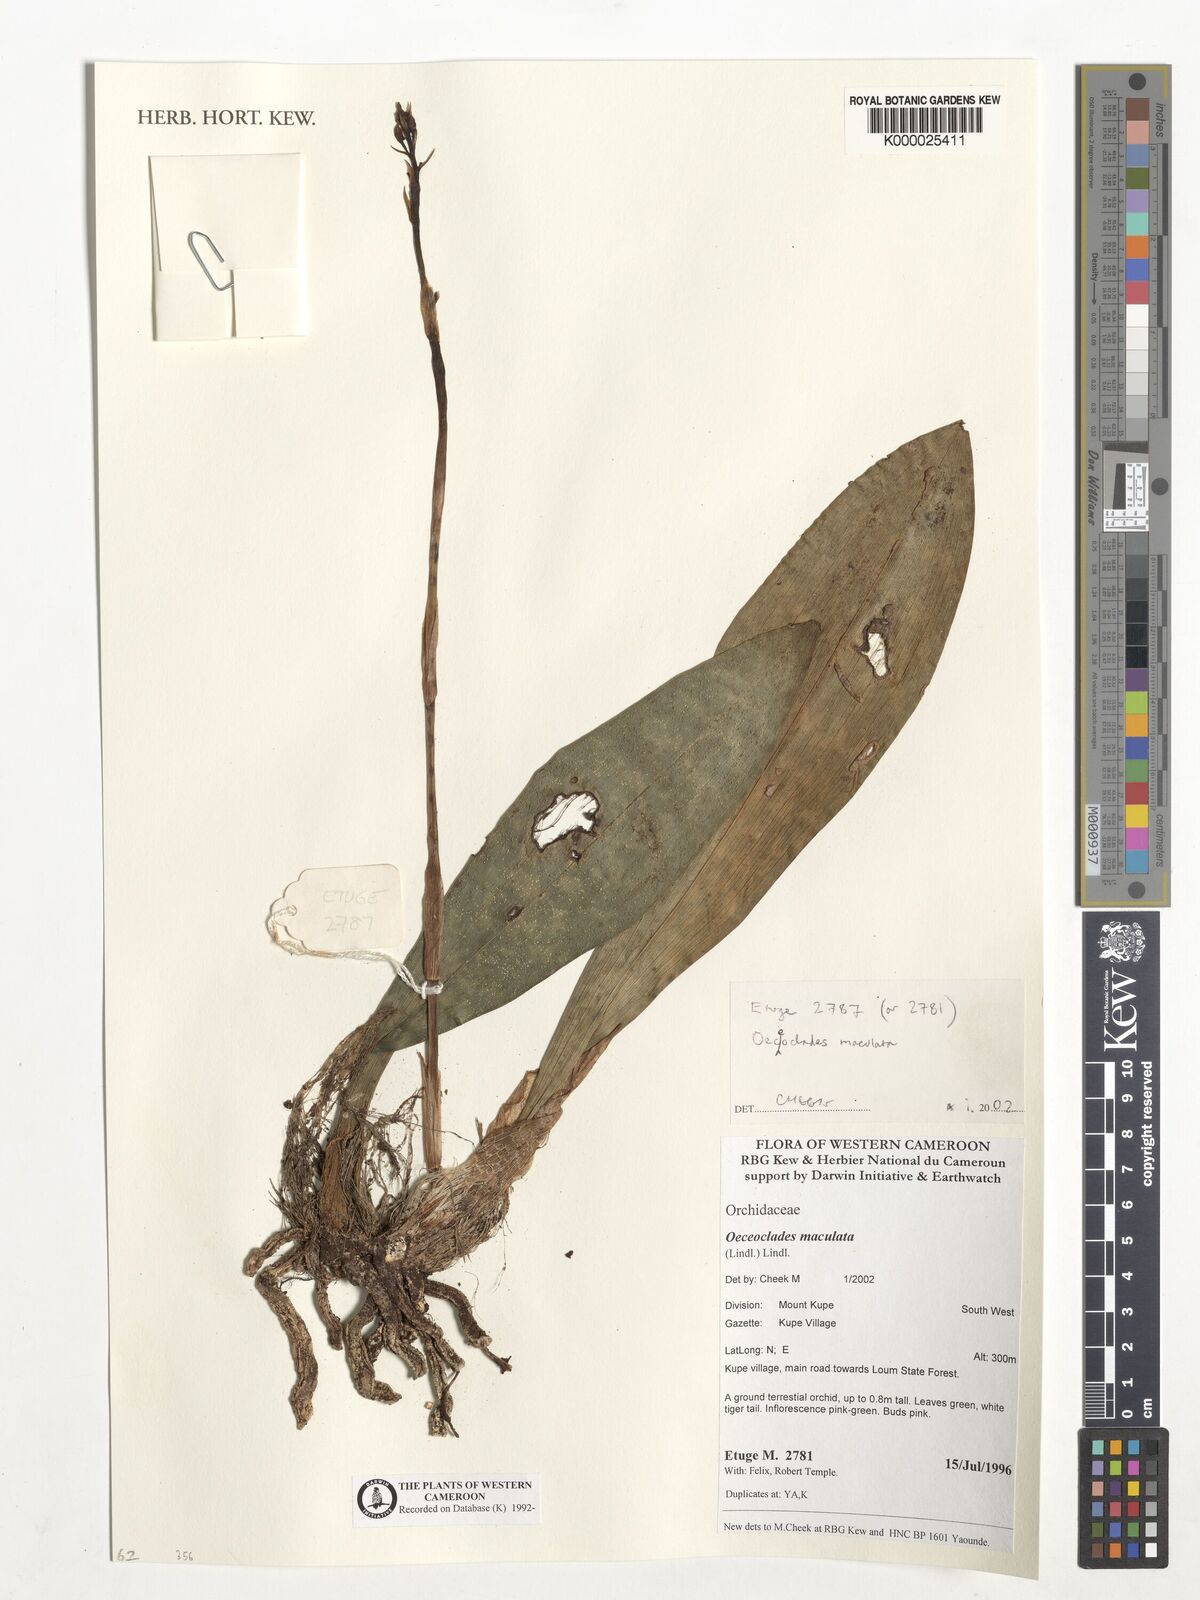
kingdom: Plantae
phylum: Tracheophyta
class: Liliopsida
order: Asparagales
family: Orchidaceae
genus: Eulophia
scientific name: Eulophia maculata
